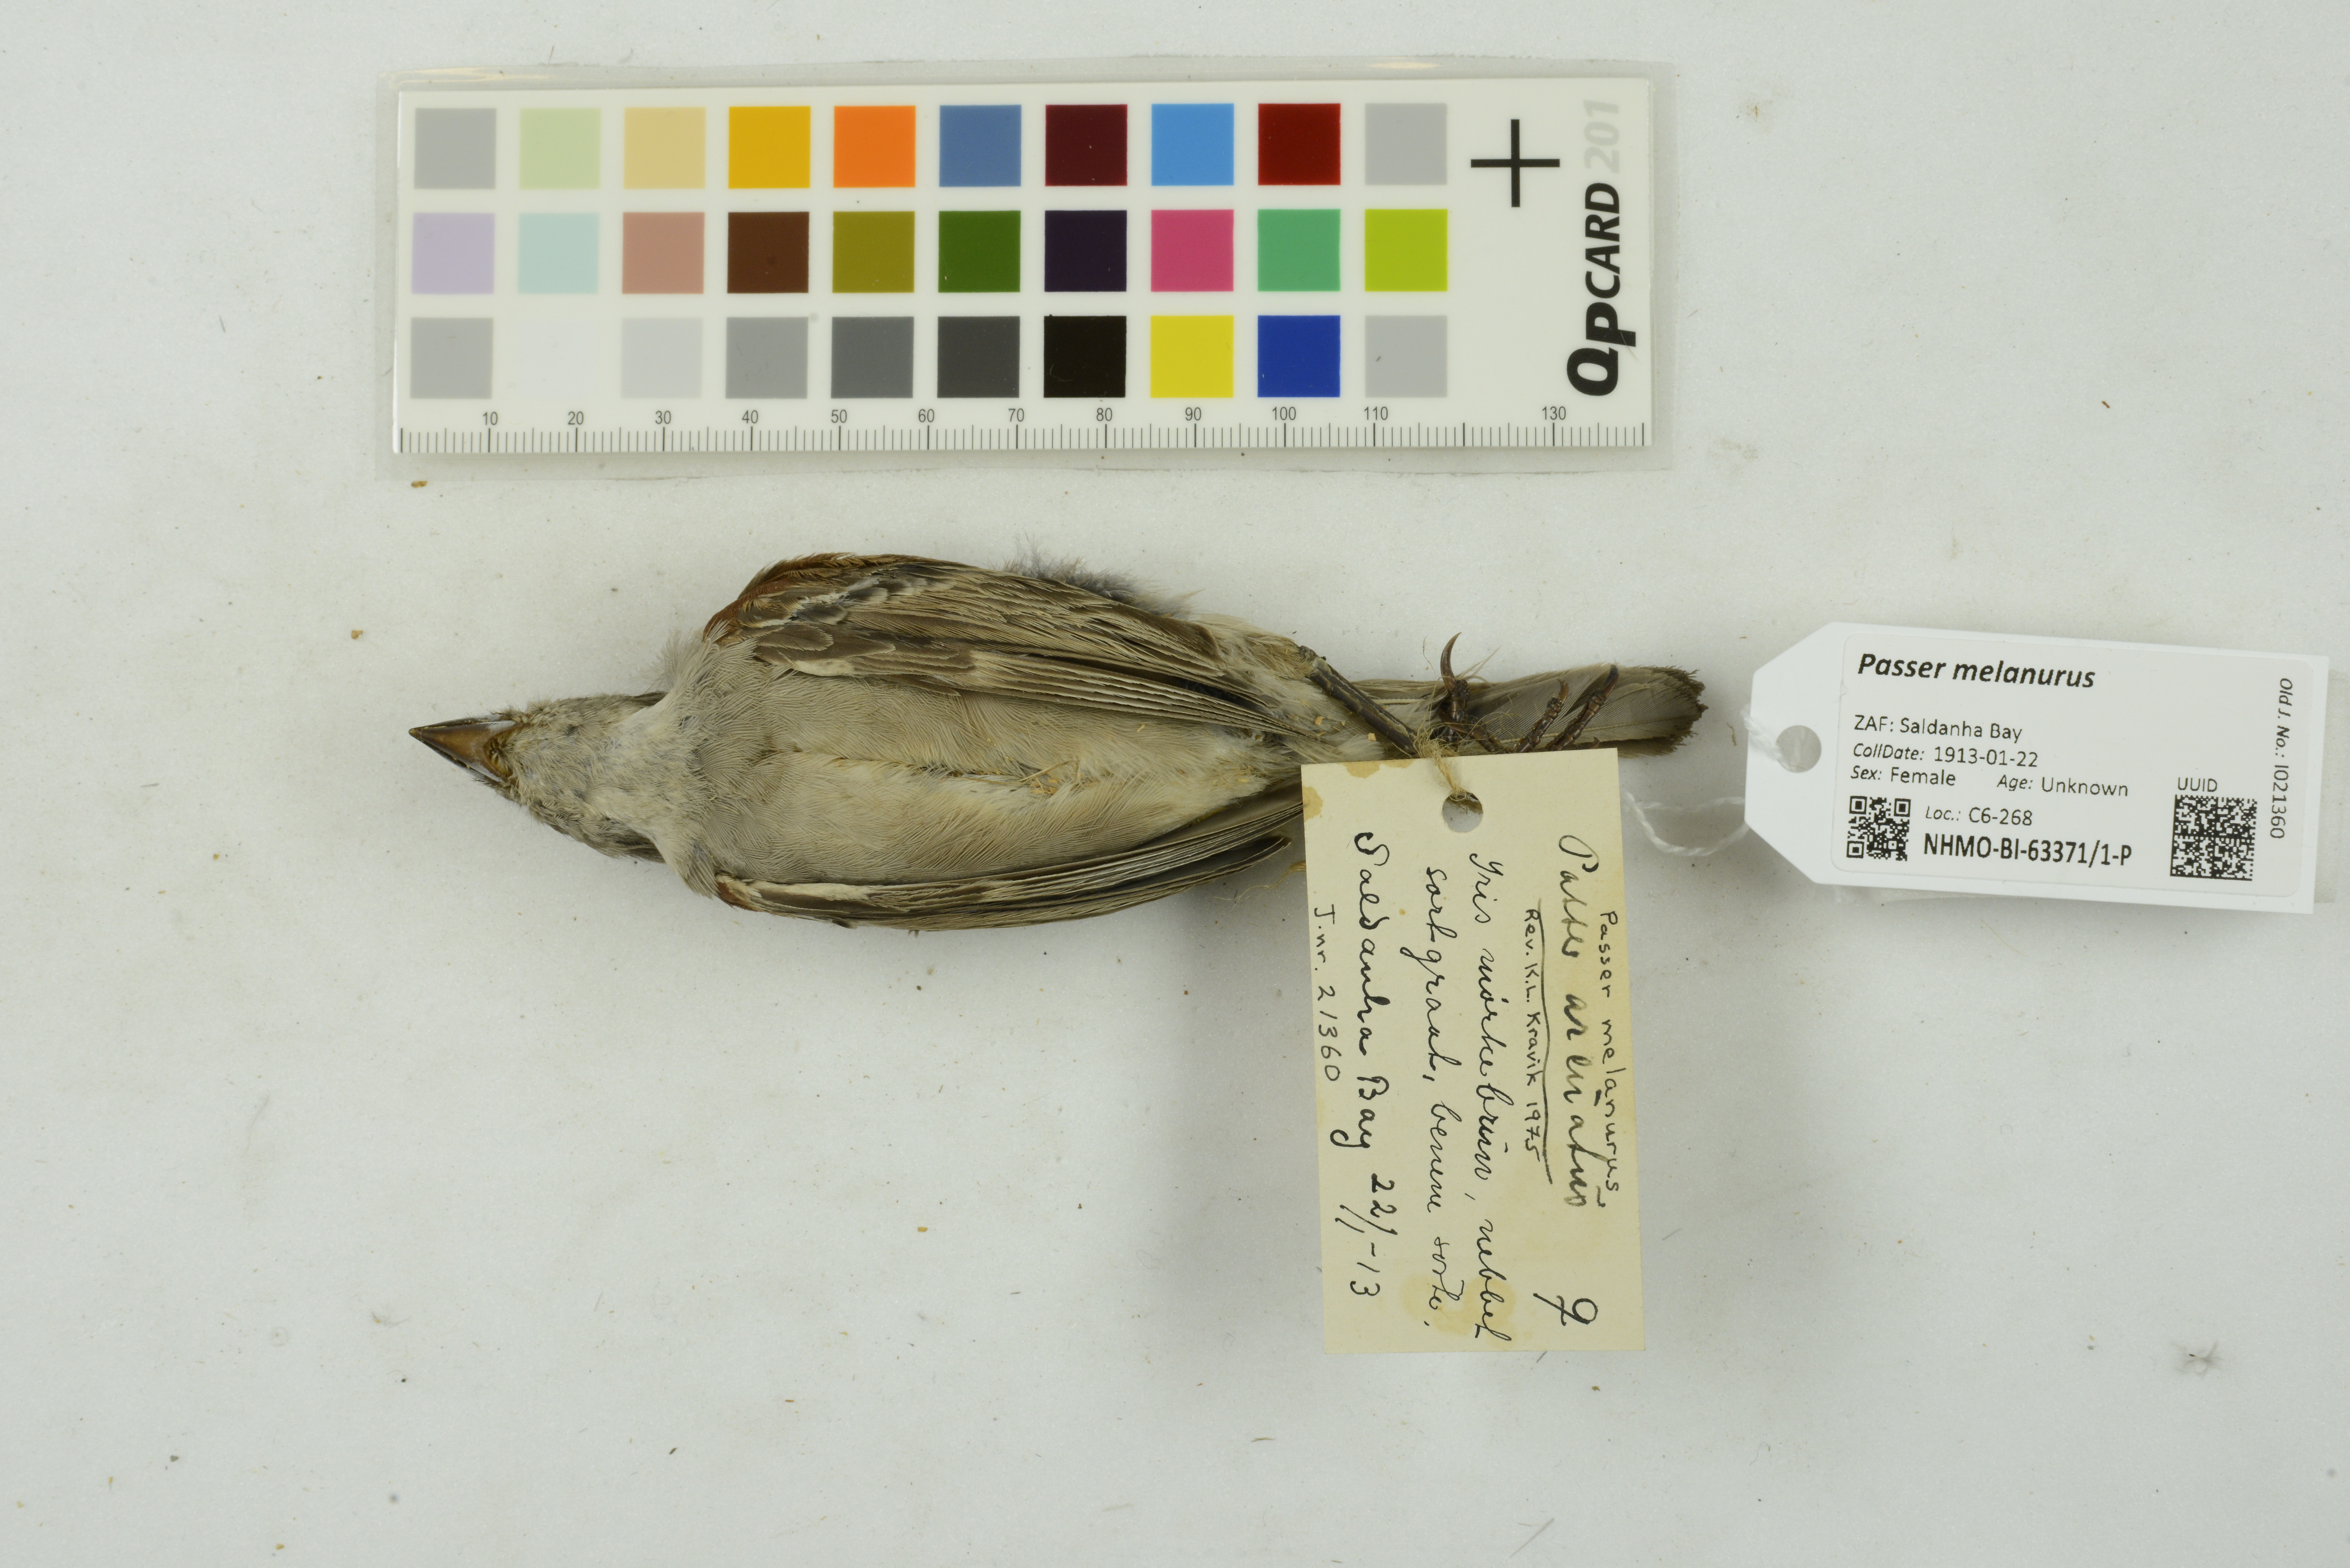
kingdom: Animalia
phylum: Chordata
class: Aves
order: Passeriformes
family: Passeridae
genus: Passer
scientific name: Passer melanurus
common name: Cape sparrow
